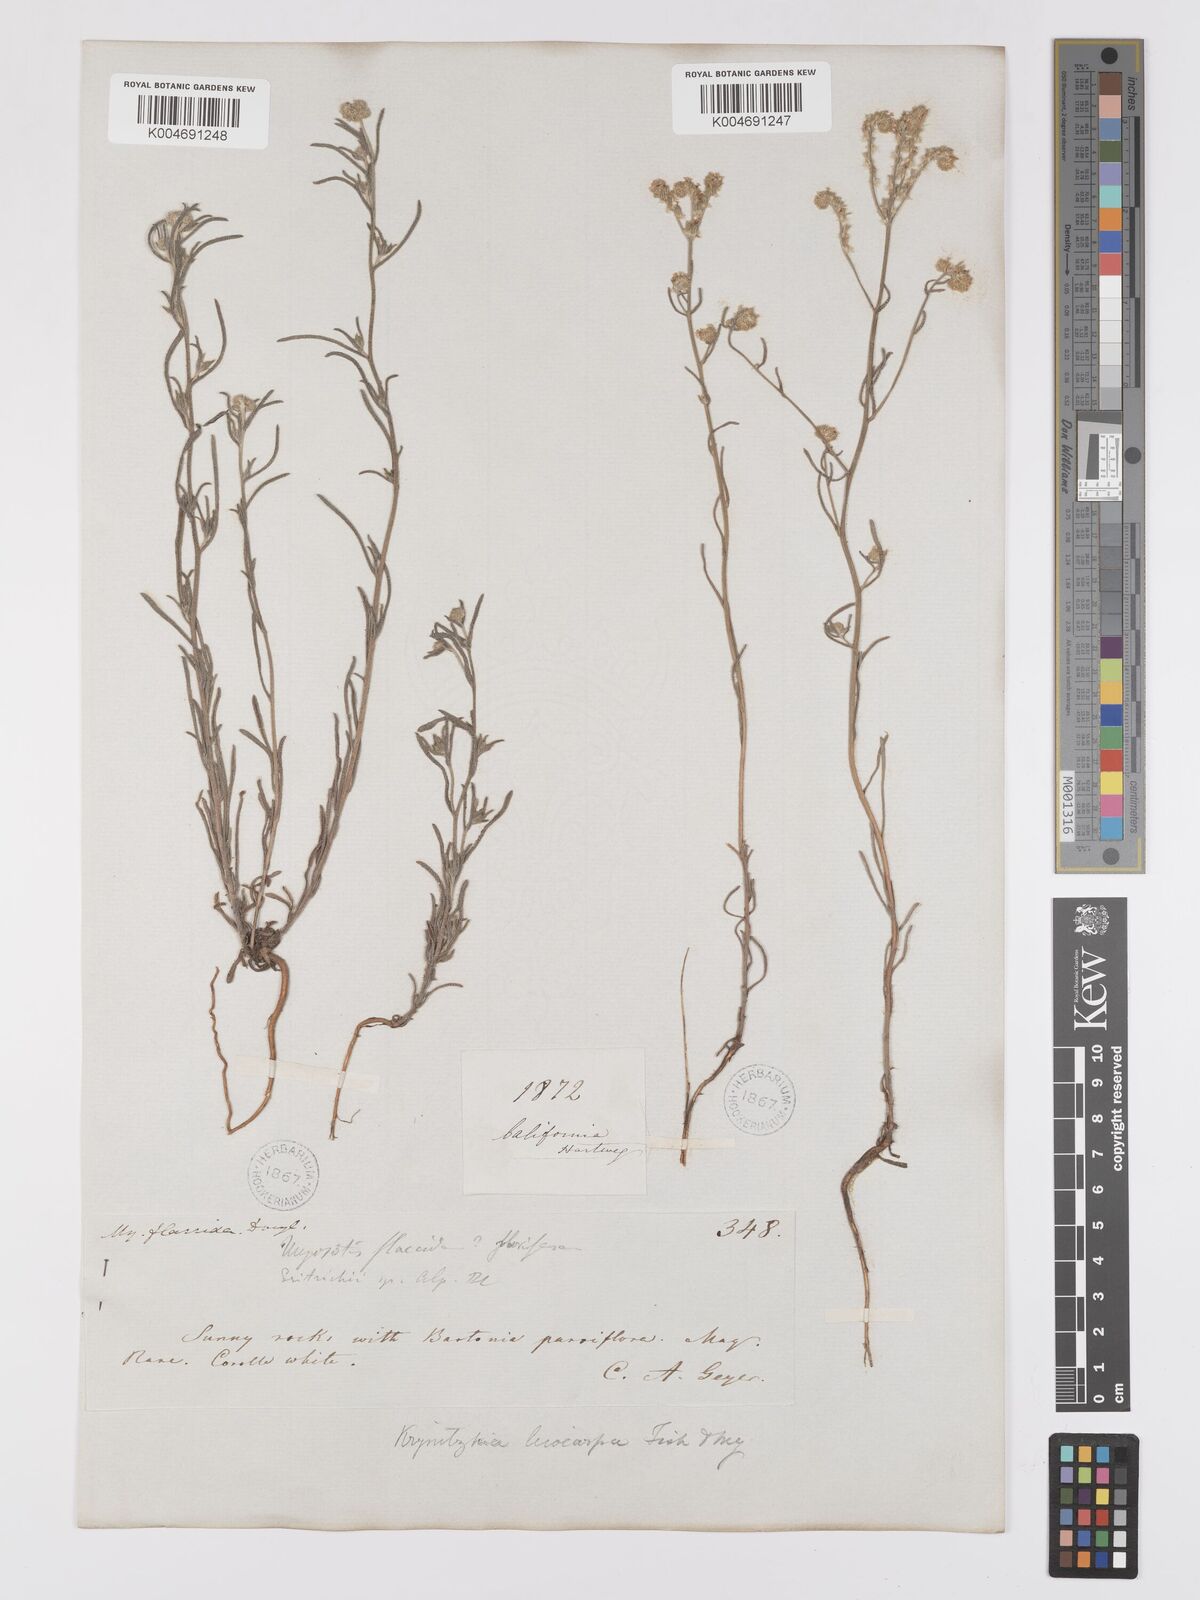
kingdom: Plantae
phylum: Tracheophyta
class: Magnoliopsida
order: Boraginales
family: Boraginaceae
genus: Cryptantha
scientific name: Cryptantha flaccida
